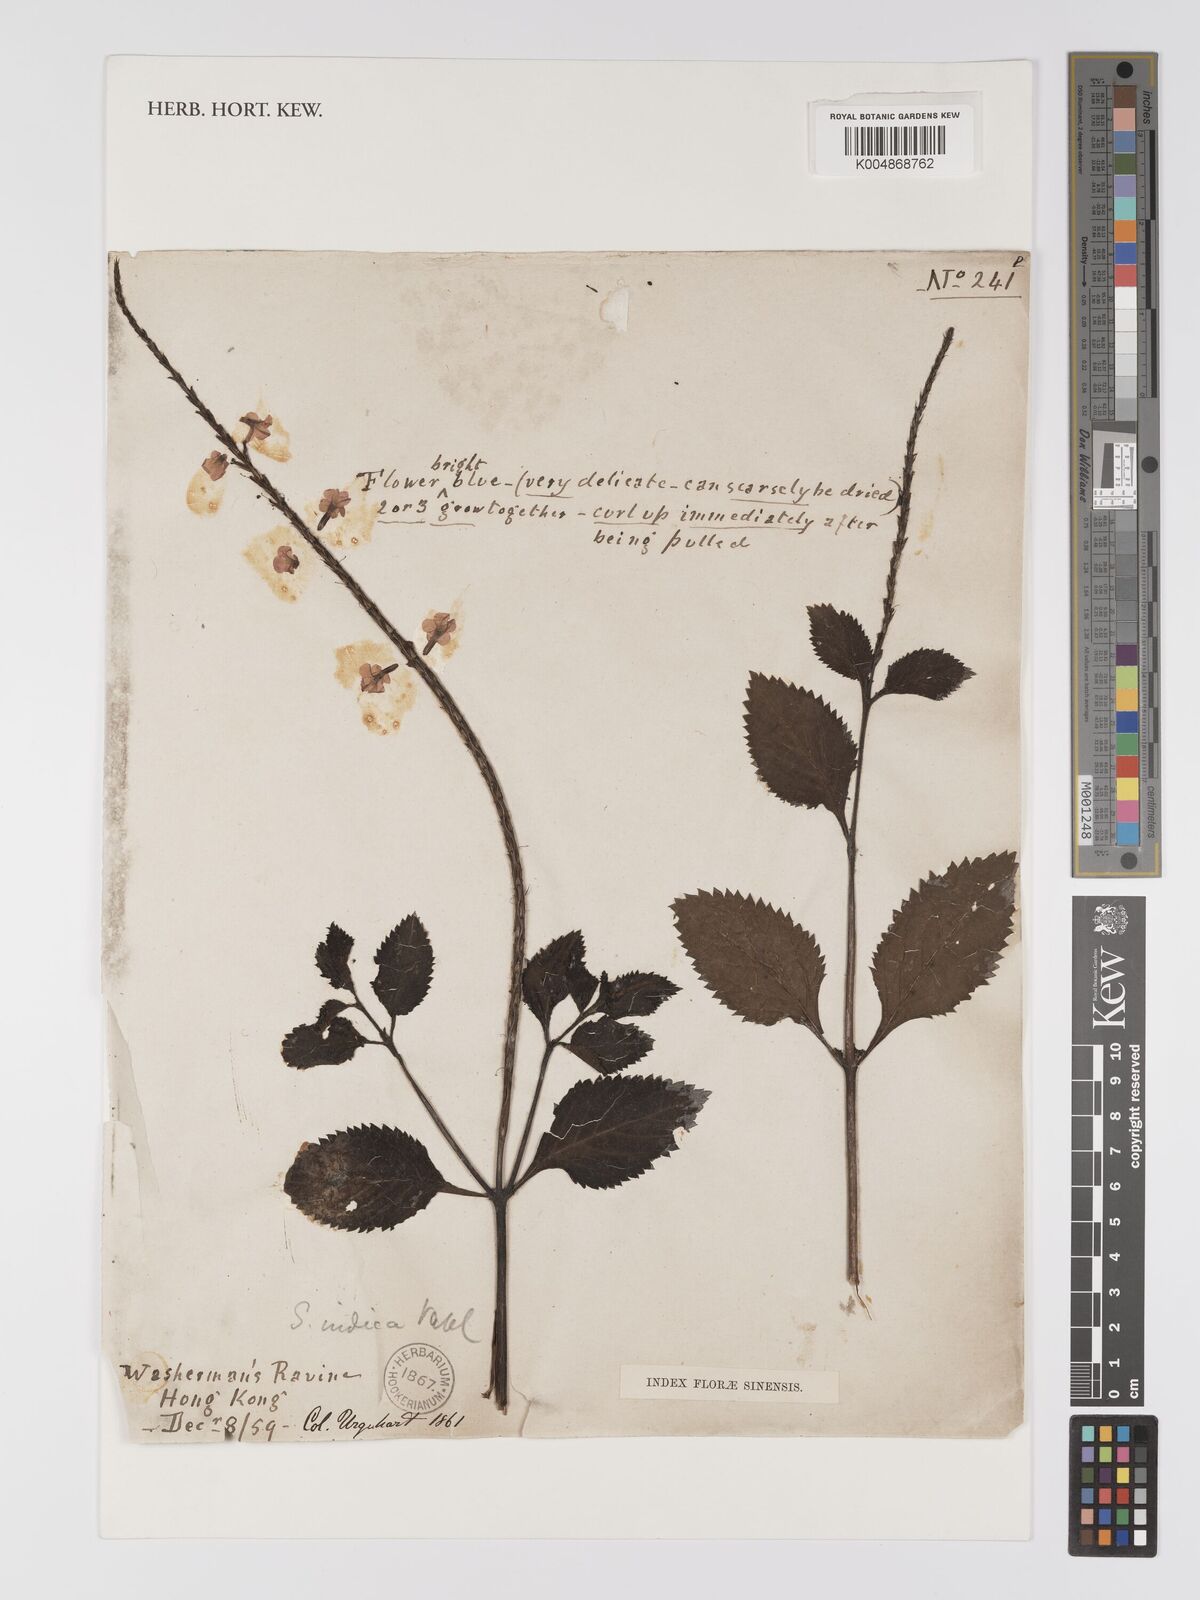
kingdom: Plantae
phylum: Tracheophyta
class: Magnoliopsida
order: Lamiales
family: Verbenaceae
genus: Stachytarpheta
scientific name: Stachytarpheta indica
